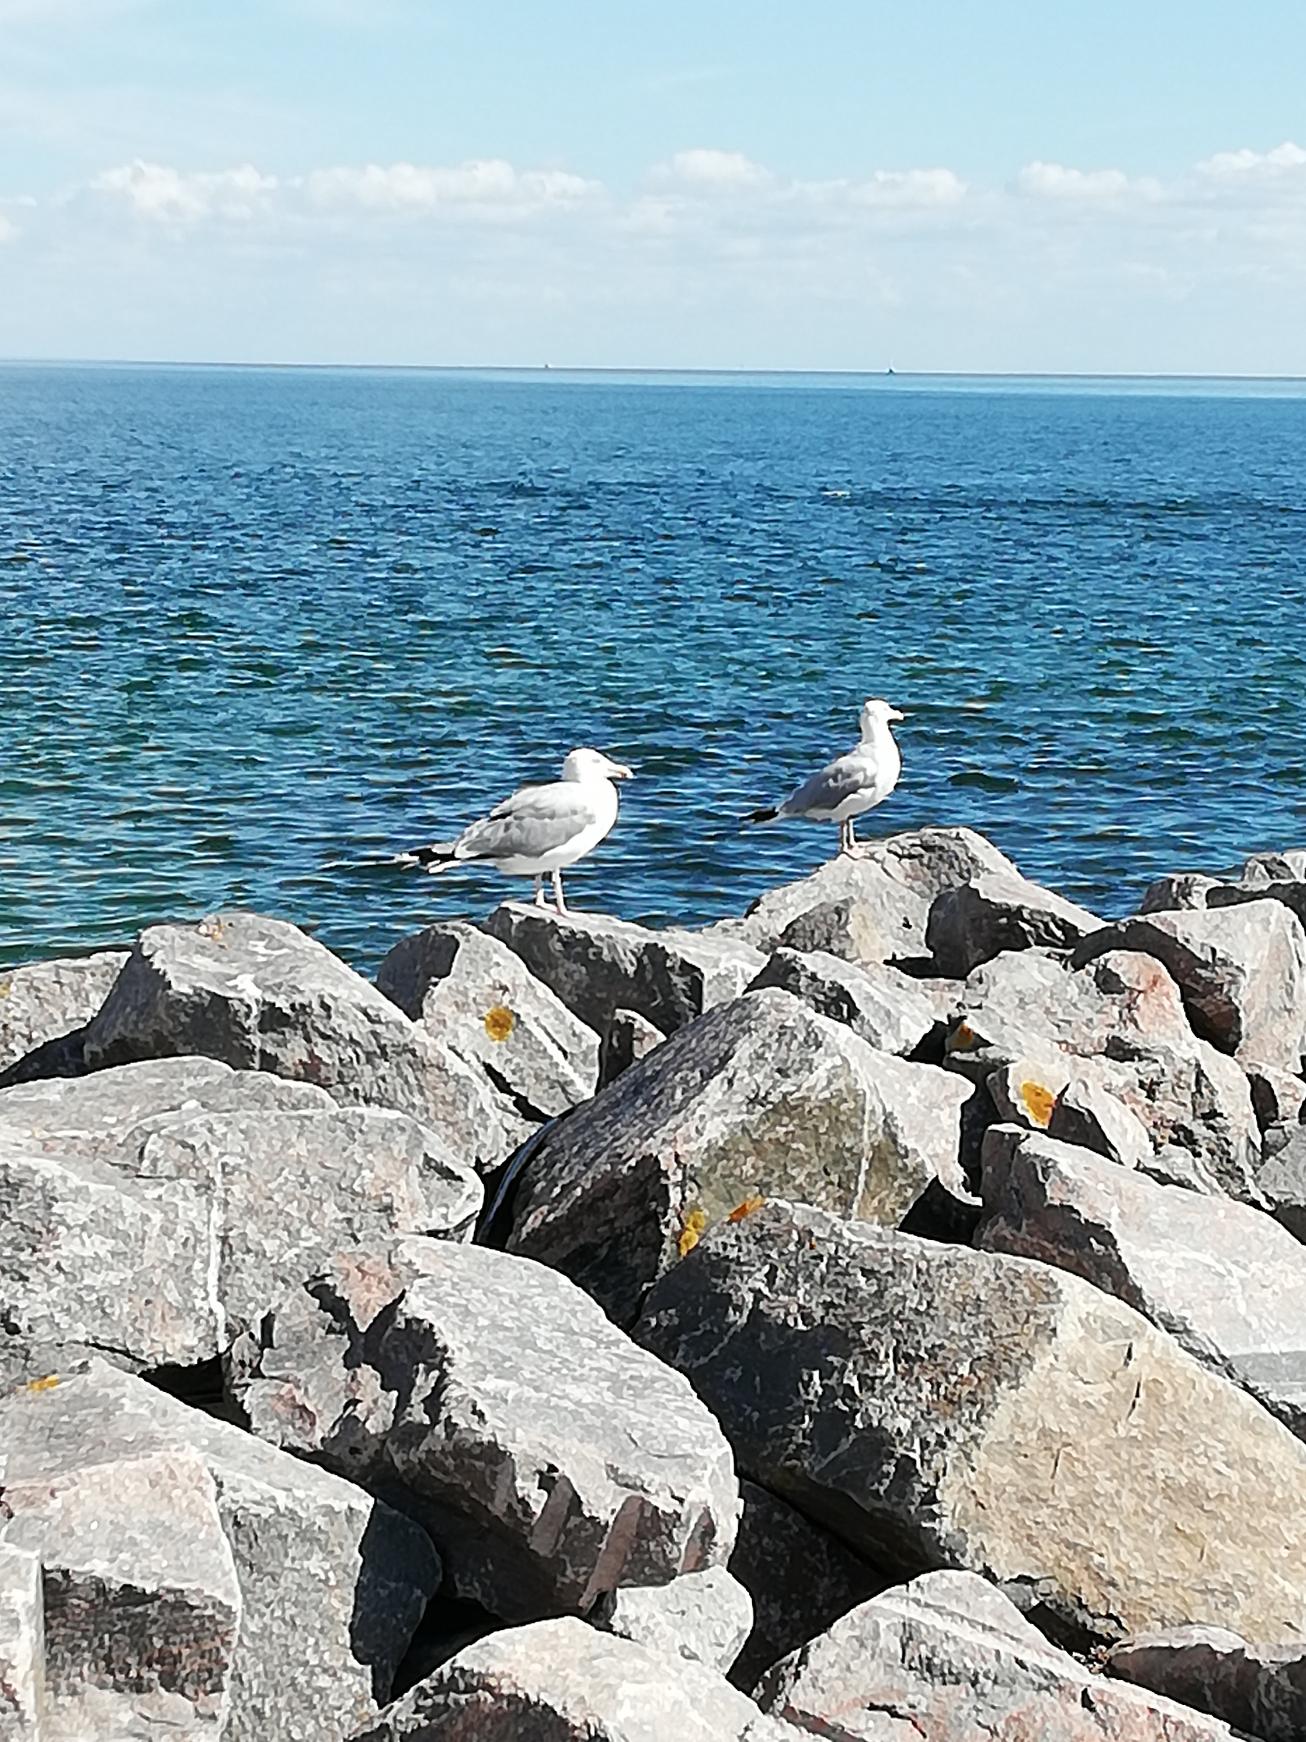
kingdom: Animalia
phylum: Chordata
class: Aves
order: Charadriiformes
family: Laridae
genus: Larus
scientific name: Larus argentatus
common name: Sølvmåge
